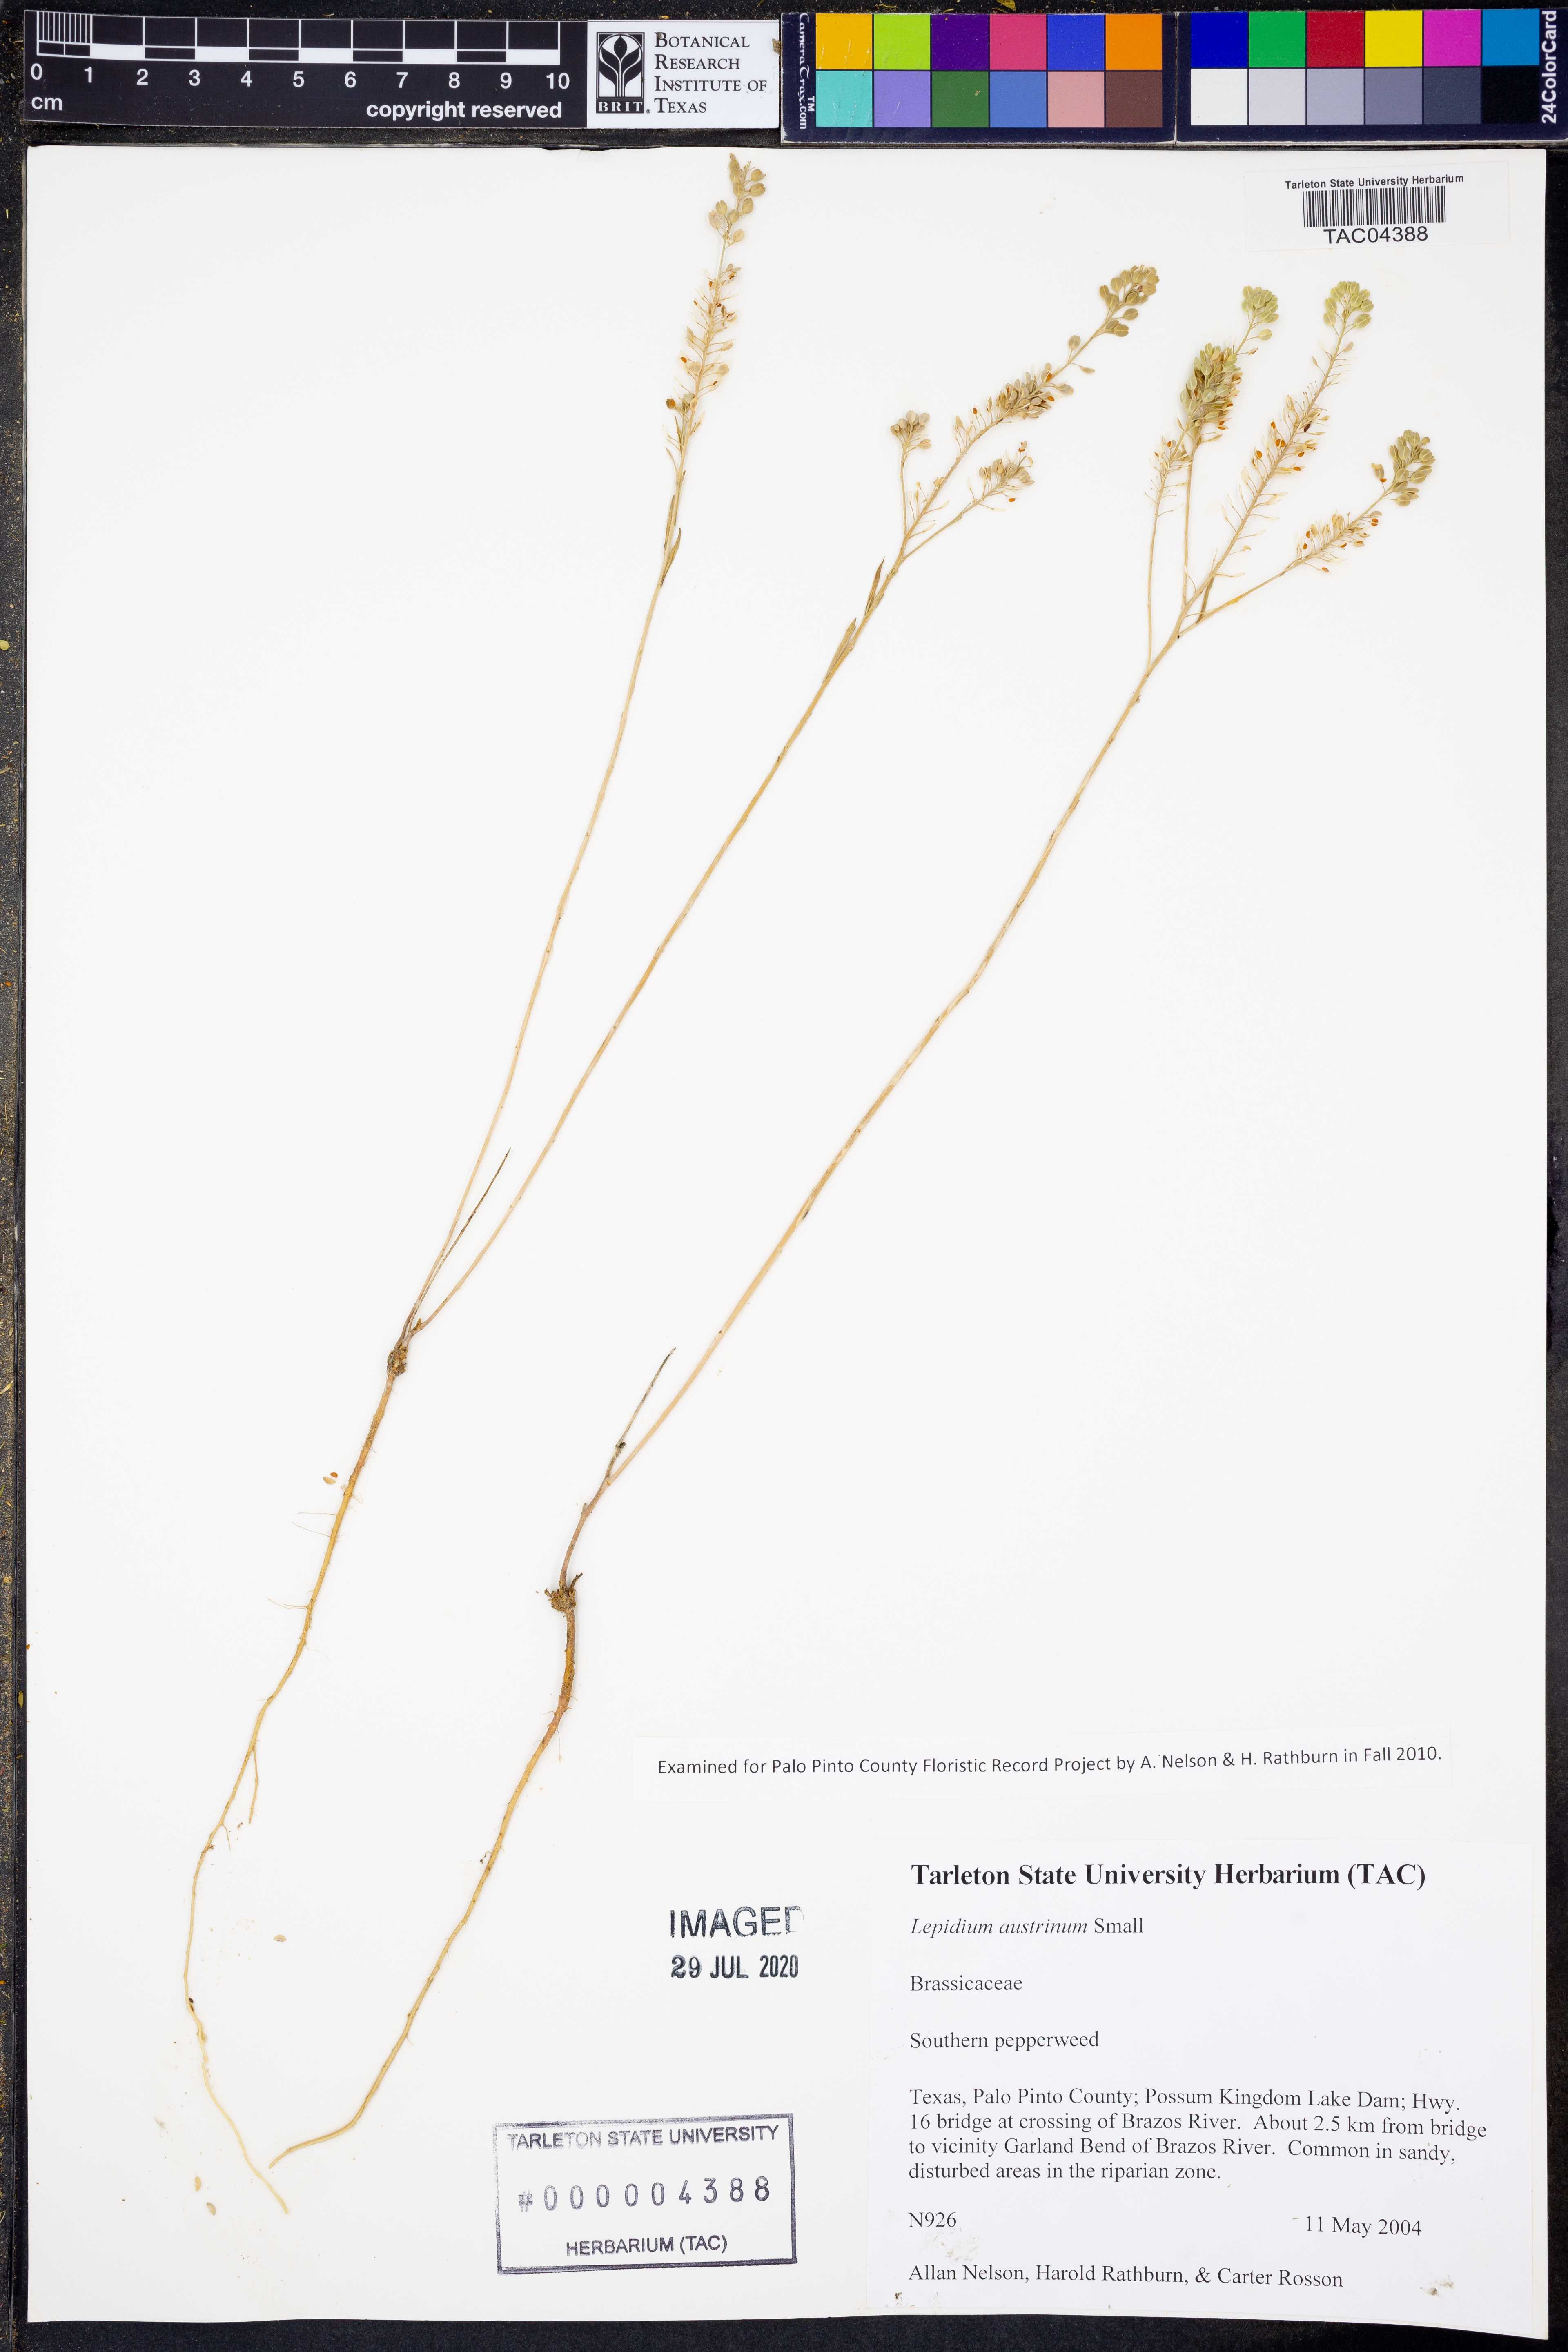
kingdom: Plantae
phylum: Tracheophyta
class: Magnoliopsida
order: Brassicales
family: Brassicaceae
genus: Lepidium
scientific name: Lepidium austrinum
